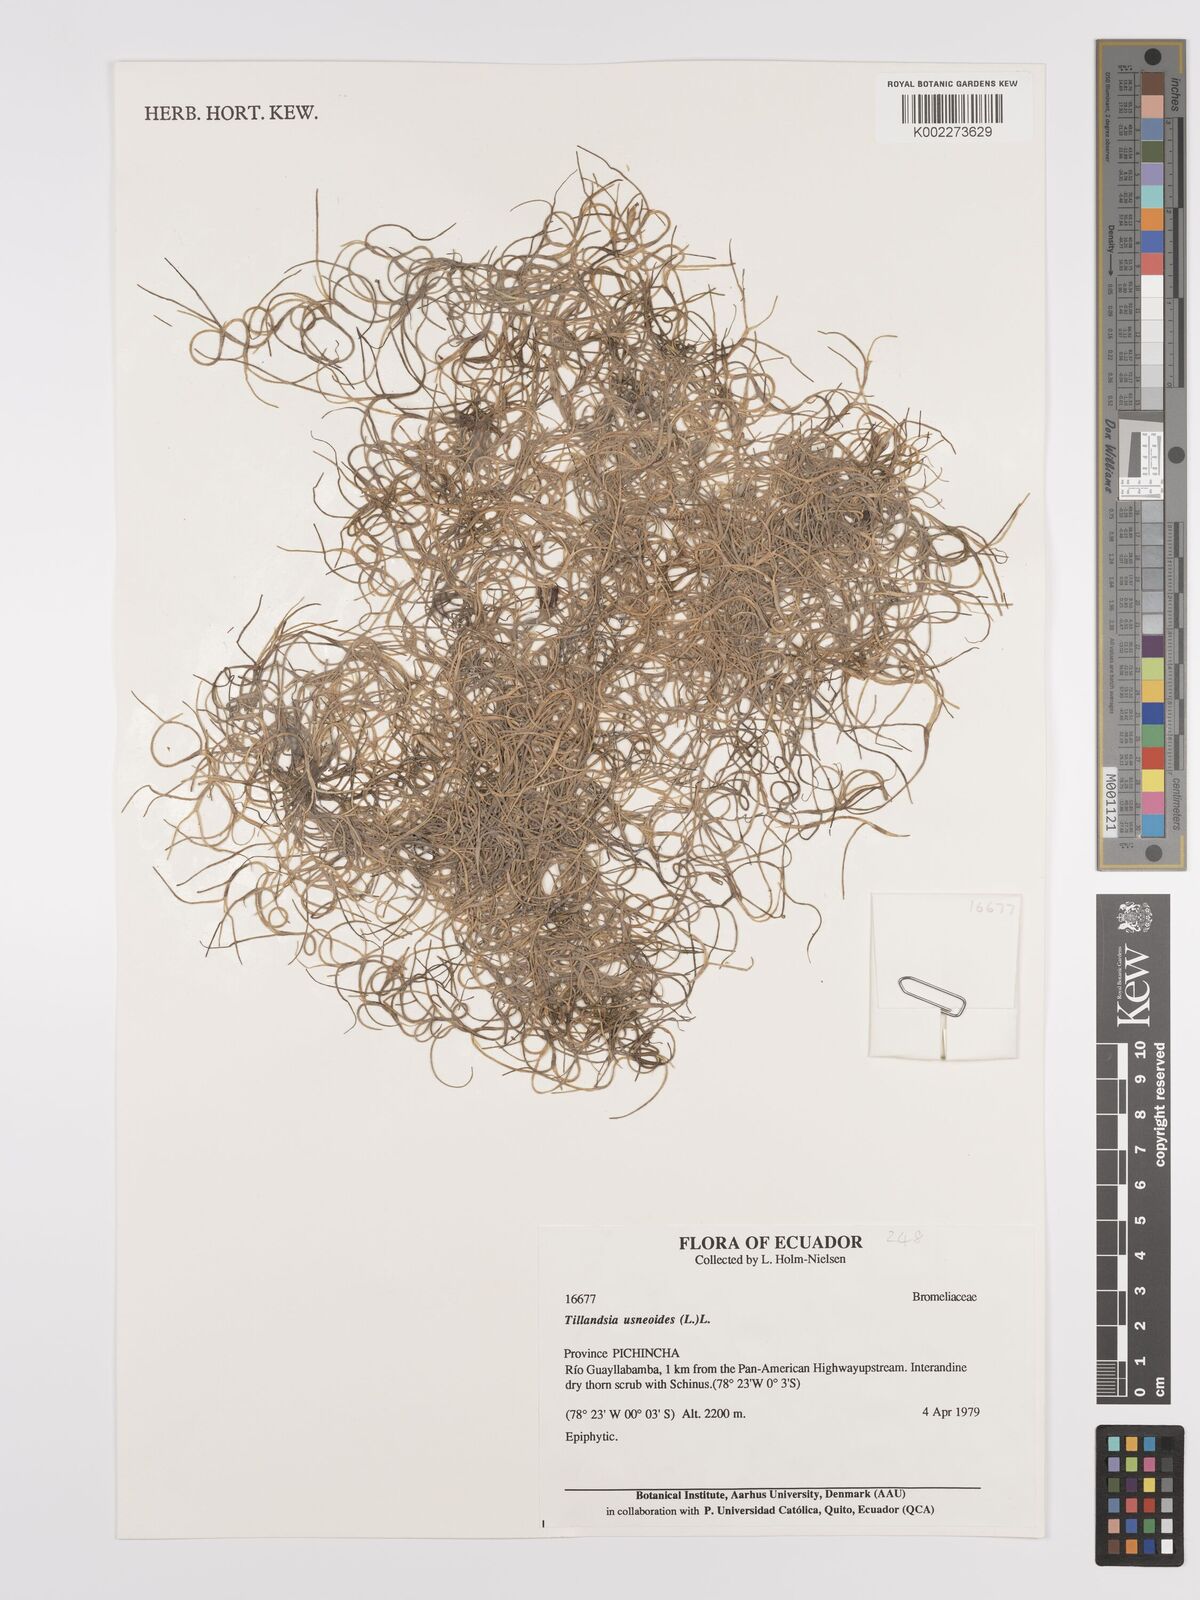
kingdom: Plantae
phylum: Tracheophyta
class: Liliopsida
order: Poales
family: Bromeliaceae
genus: Tillandsia
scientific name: Tillandsia usneoides
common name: Spanish moss
